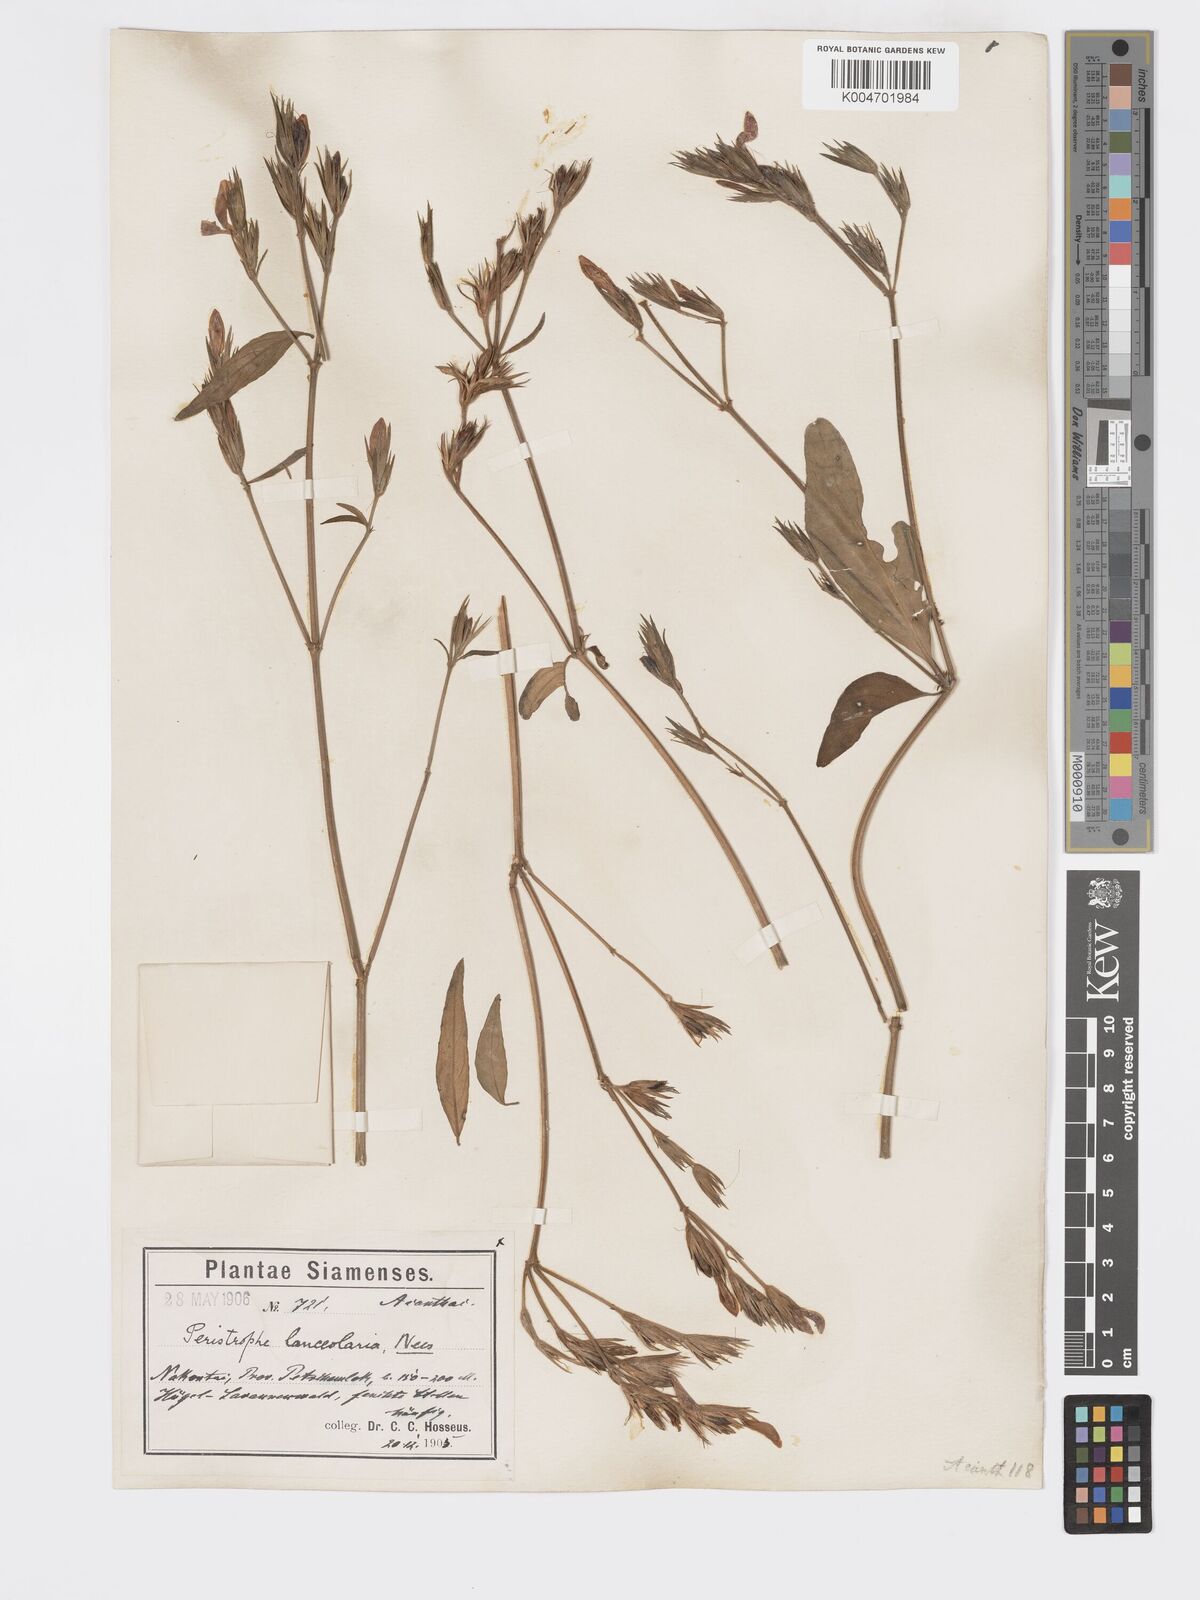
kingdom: Plantae
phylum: Tracheophyta
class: Magnoliopsida
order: Lamiales
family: Acanthaceae
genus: Dicliptera
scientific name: Dicliptera lanceolaria
